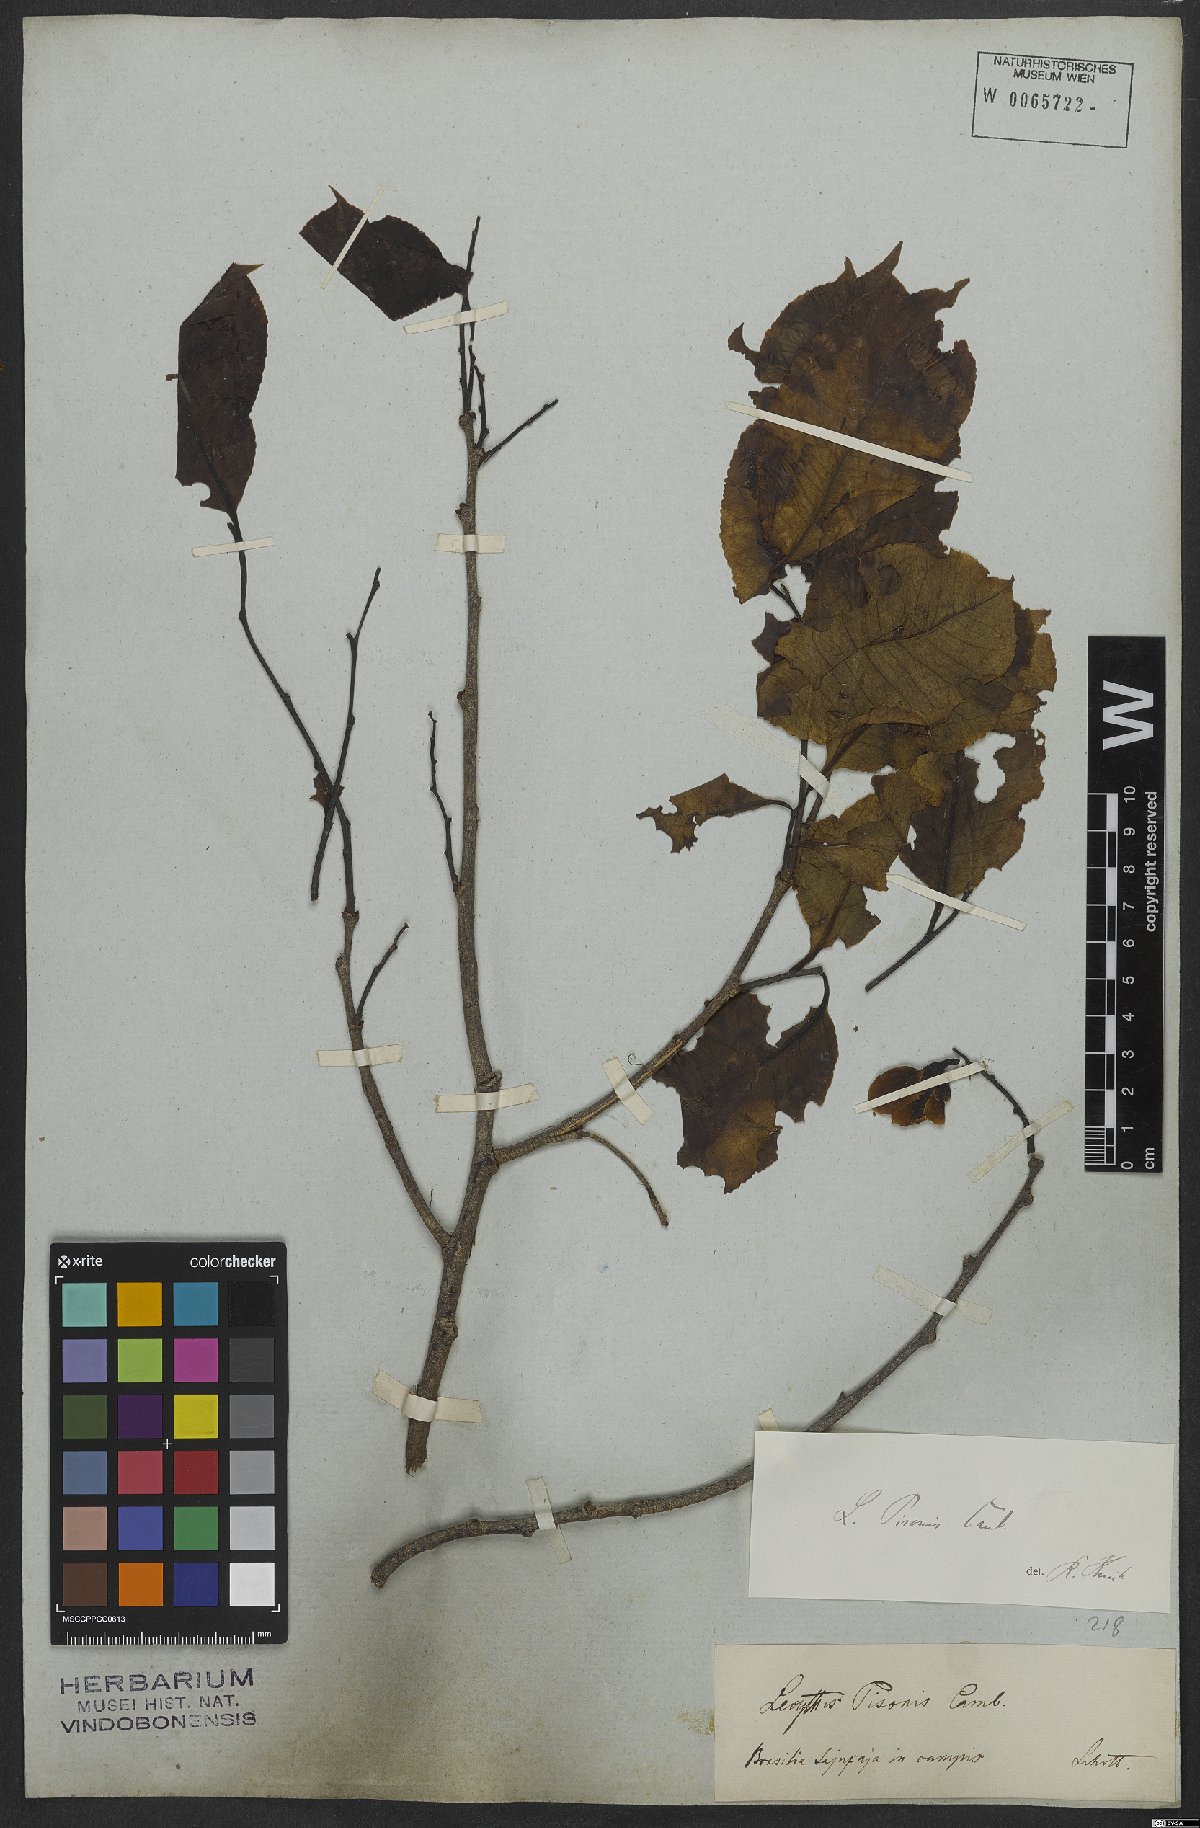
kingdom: Plantae
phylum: Tracheophyta
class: Magnoliopsida
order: Ericales
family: Lecythidaceae
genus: Lecythis
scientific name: Lecythis pisonis
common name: Paradise-nut
